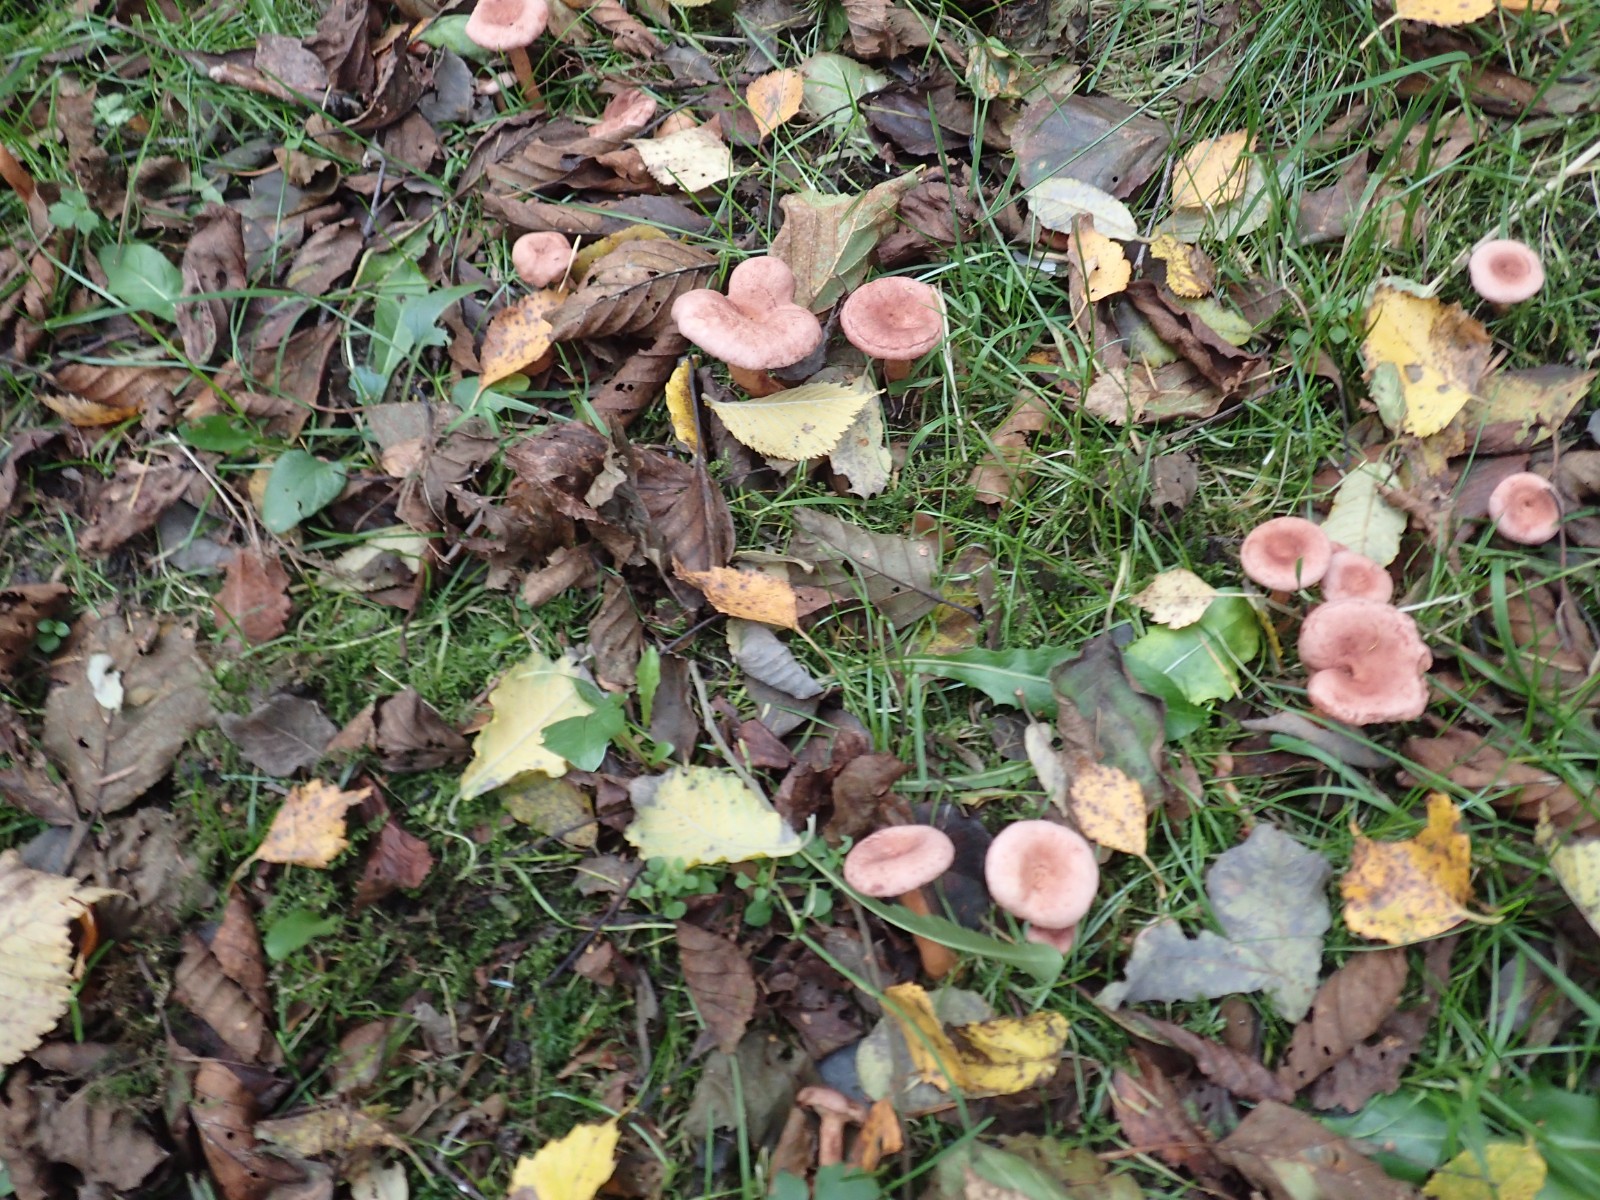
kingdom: Fungi
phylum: Basidiomycota
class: Agaricomycetes
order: Russulales
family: Russulaceae
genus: Lactarius
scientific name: Lactarius lilacinus
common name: lilla mælkehat
